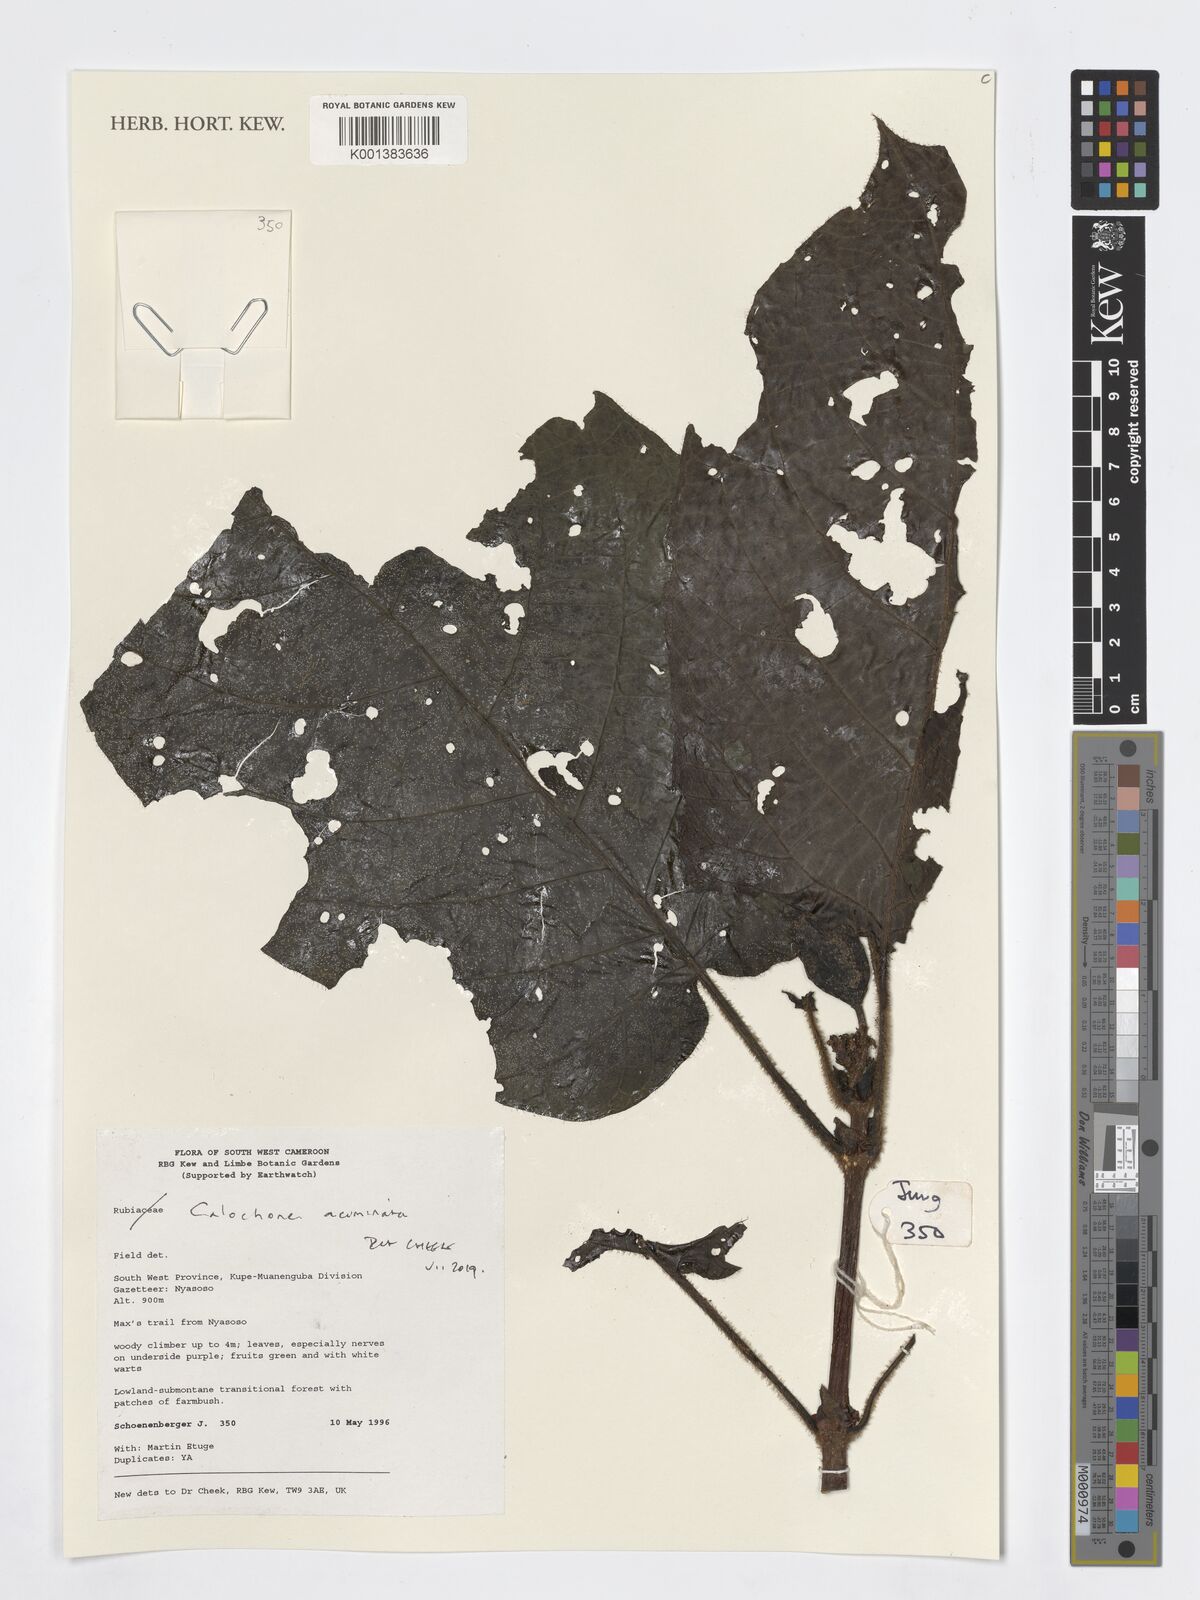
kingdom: Plantae
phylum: Tracheophyta
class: Magnoliopsida
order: Gentianales
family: Rubiaceae
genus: Calochone
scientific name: Calochone acuminata
